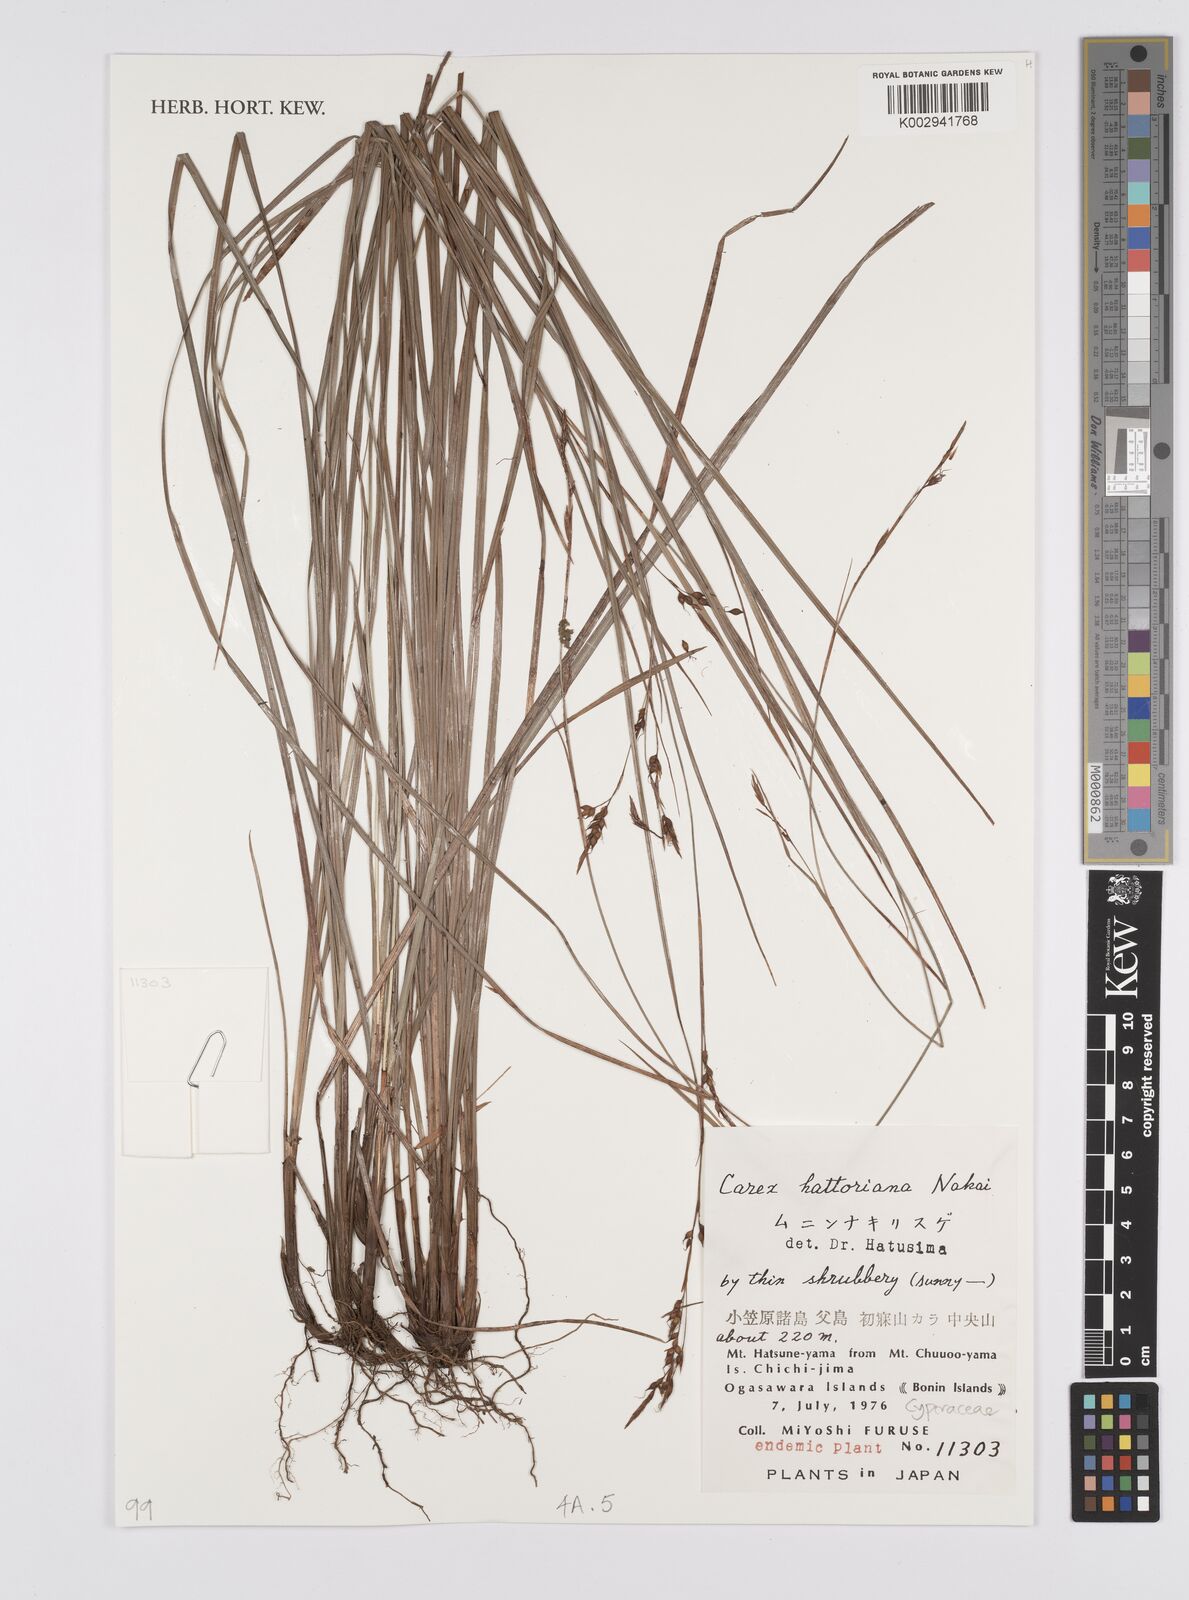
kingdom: Plantae
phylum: Tracheophyta
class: Liliopsida
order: Poales
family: Cyperaceae
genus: Carex
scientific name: Carex brunnea
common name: Greater brown sedge
